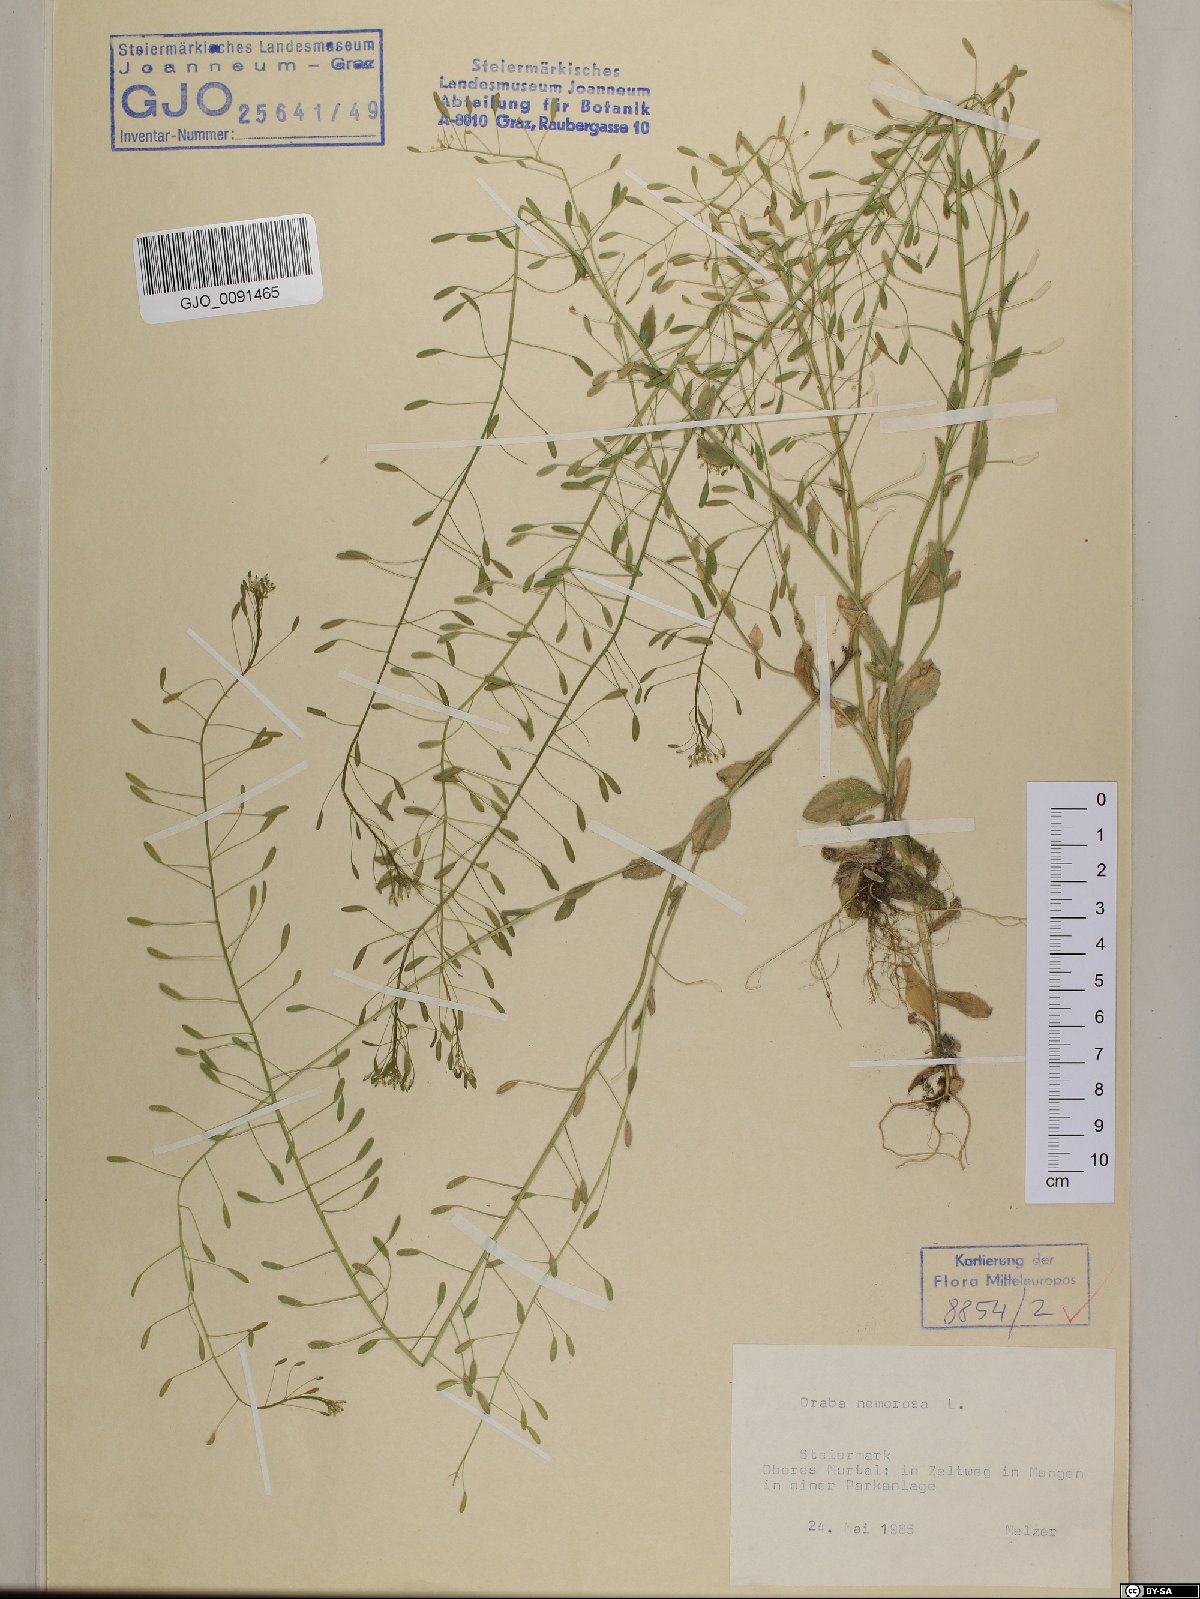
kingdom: Plantae
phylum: Tracheophyta
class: Magnoliopsida
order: Brassicales
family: Brassicaceae
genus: Draba
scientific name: Draba nemorosa
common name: Wood whitlow-grass
